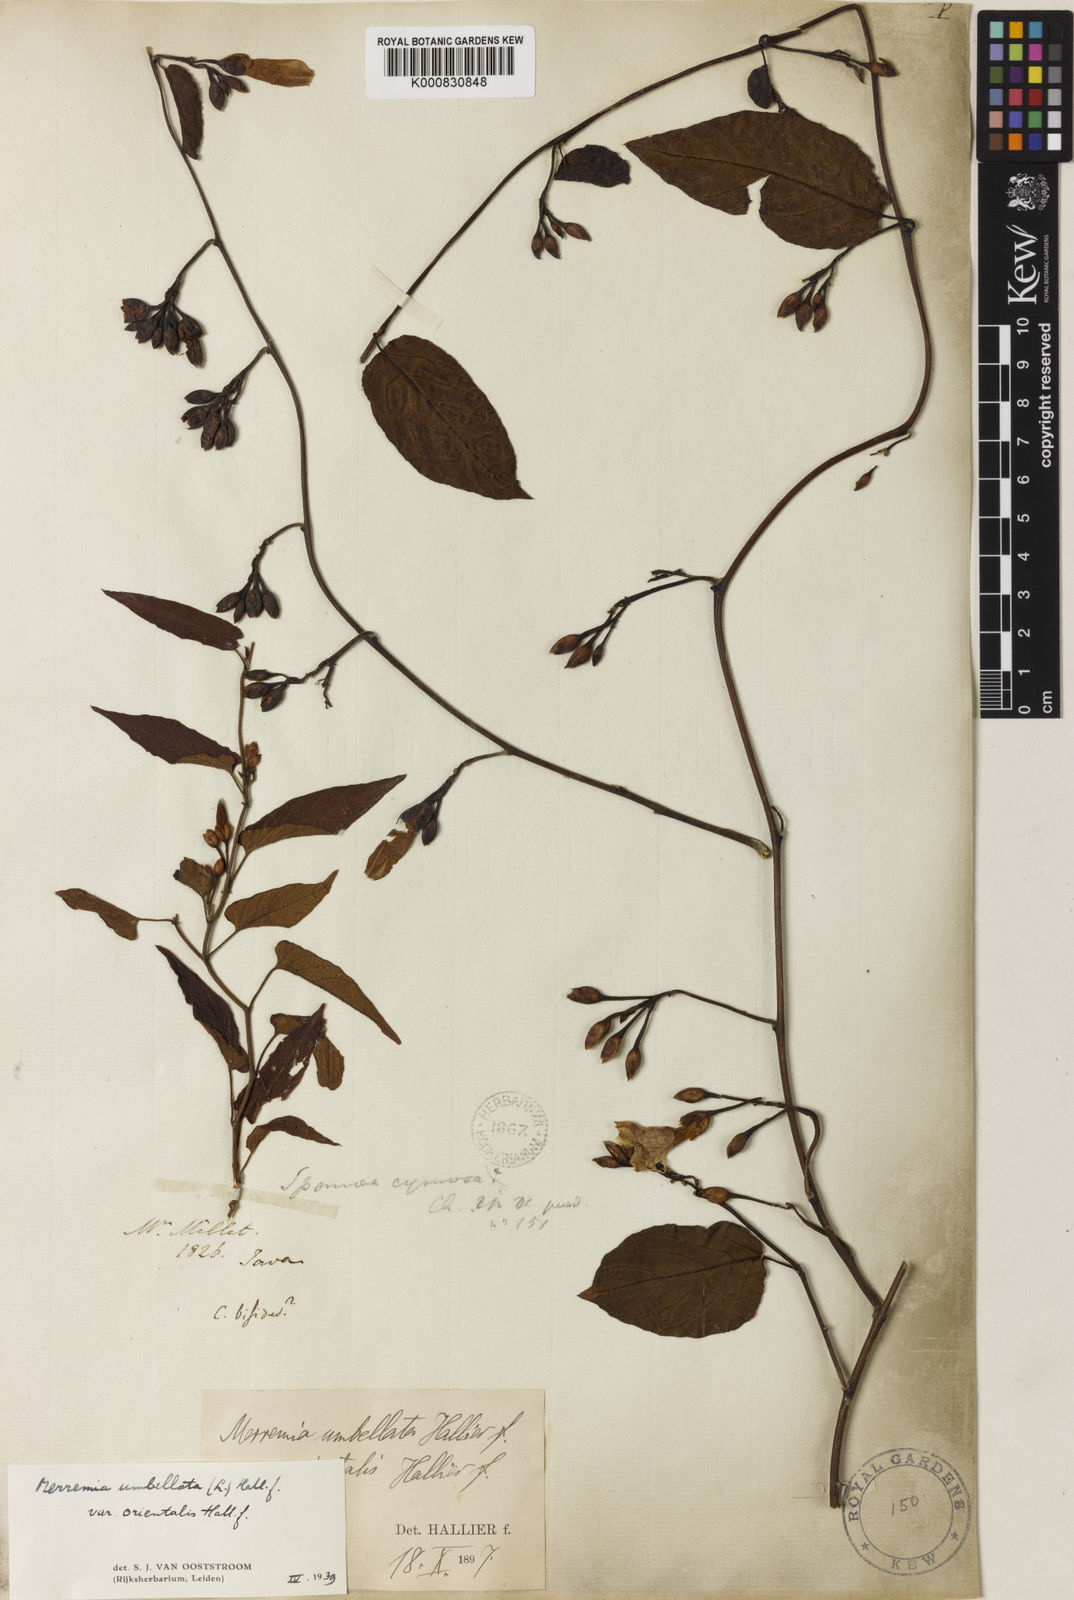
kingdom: Plantae
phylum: Tracheophyta
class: Magnoliopsida
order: Solanales
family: Convolvulaceae
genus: Merremia
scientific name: Merremia umbellata
